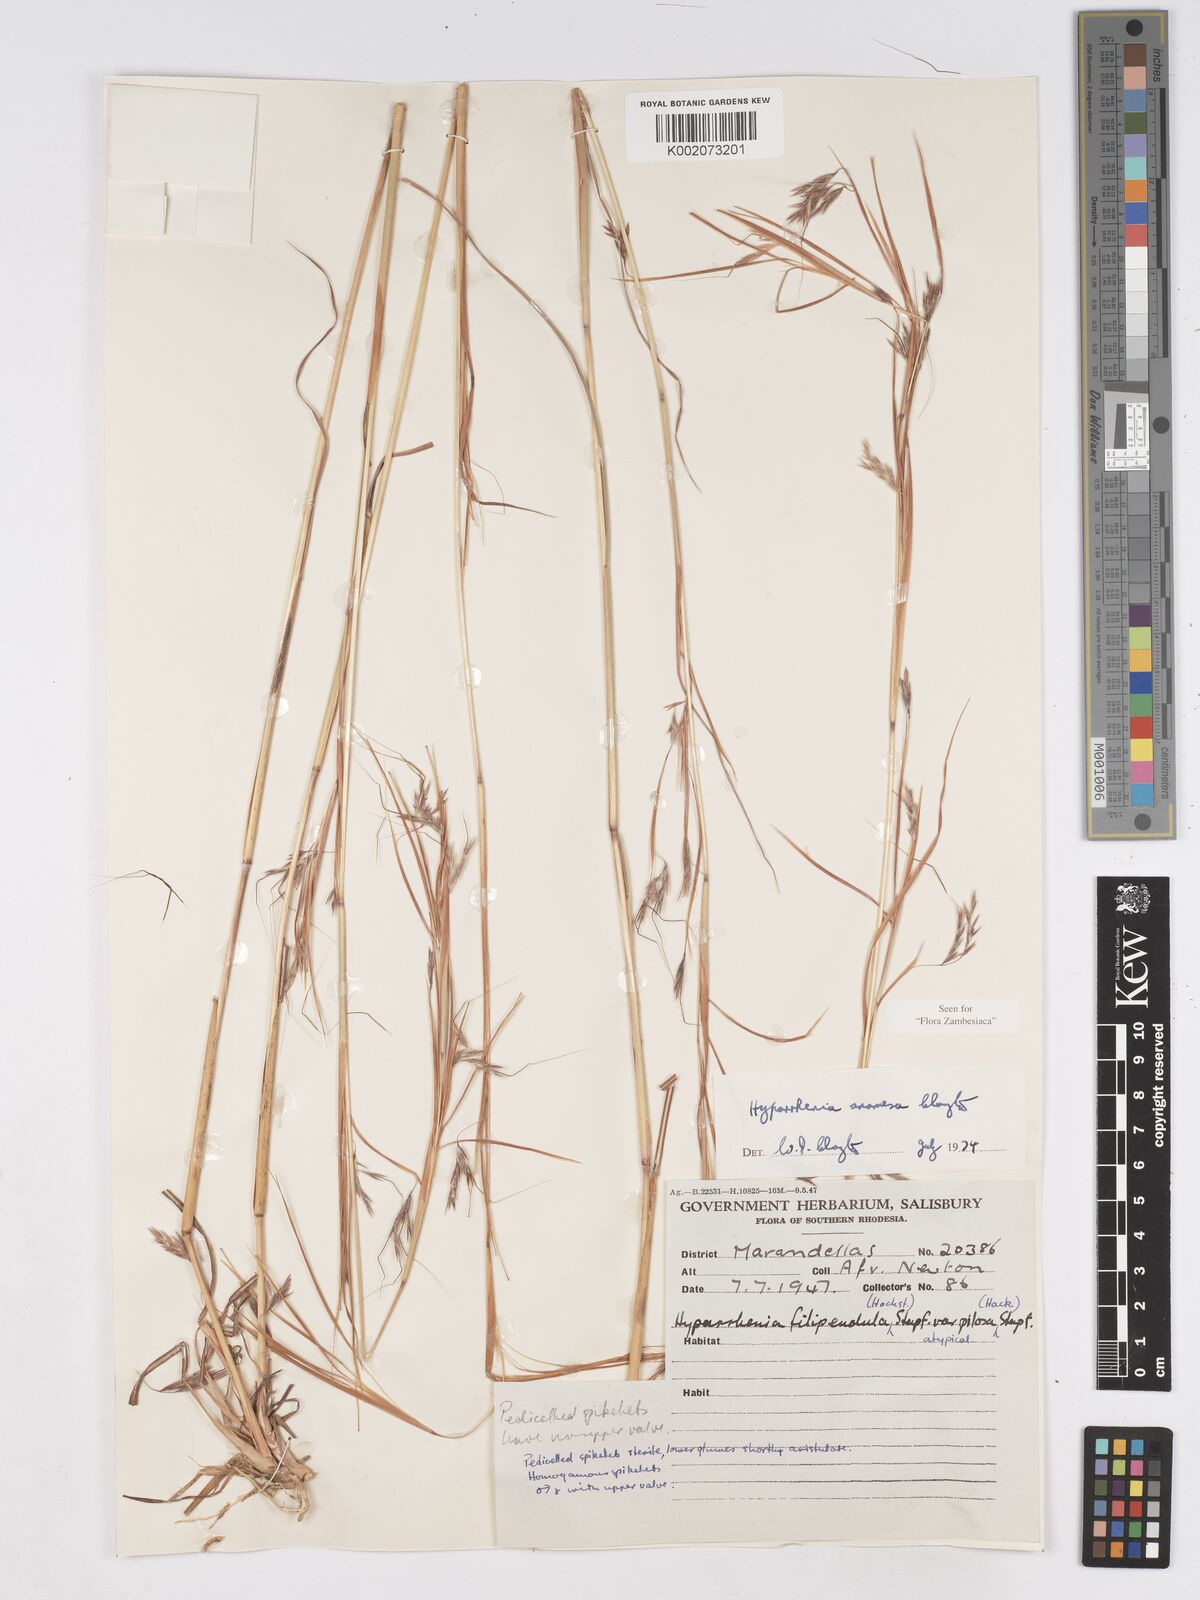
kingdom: Plantae
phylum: Tracheophyta
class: Liliopsida
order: Poales
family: Poaceae
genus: Hyparrhenia
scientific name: Hyparrhenia anamesa
